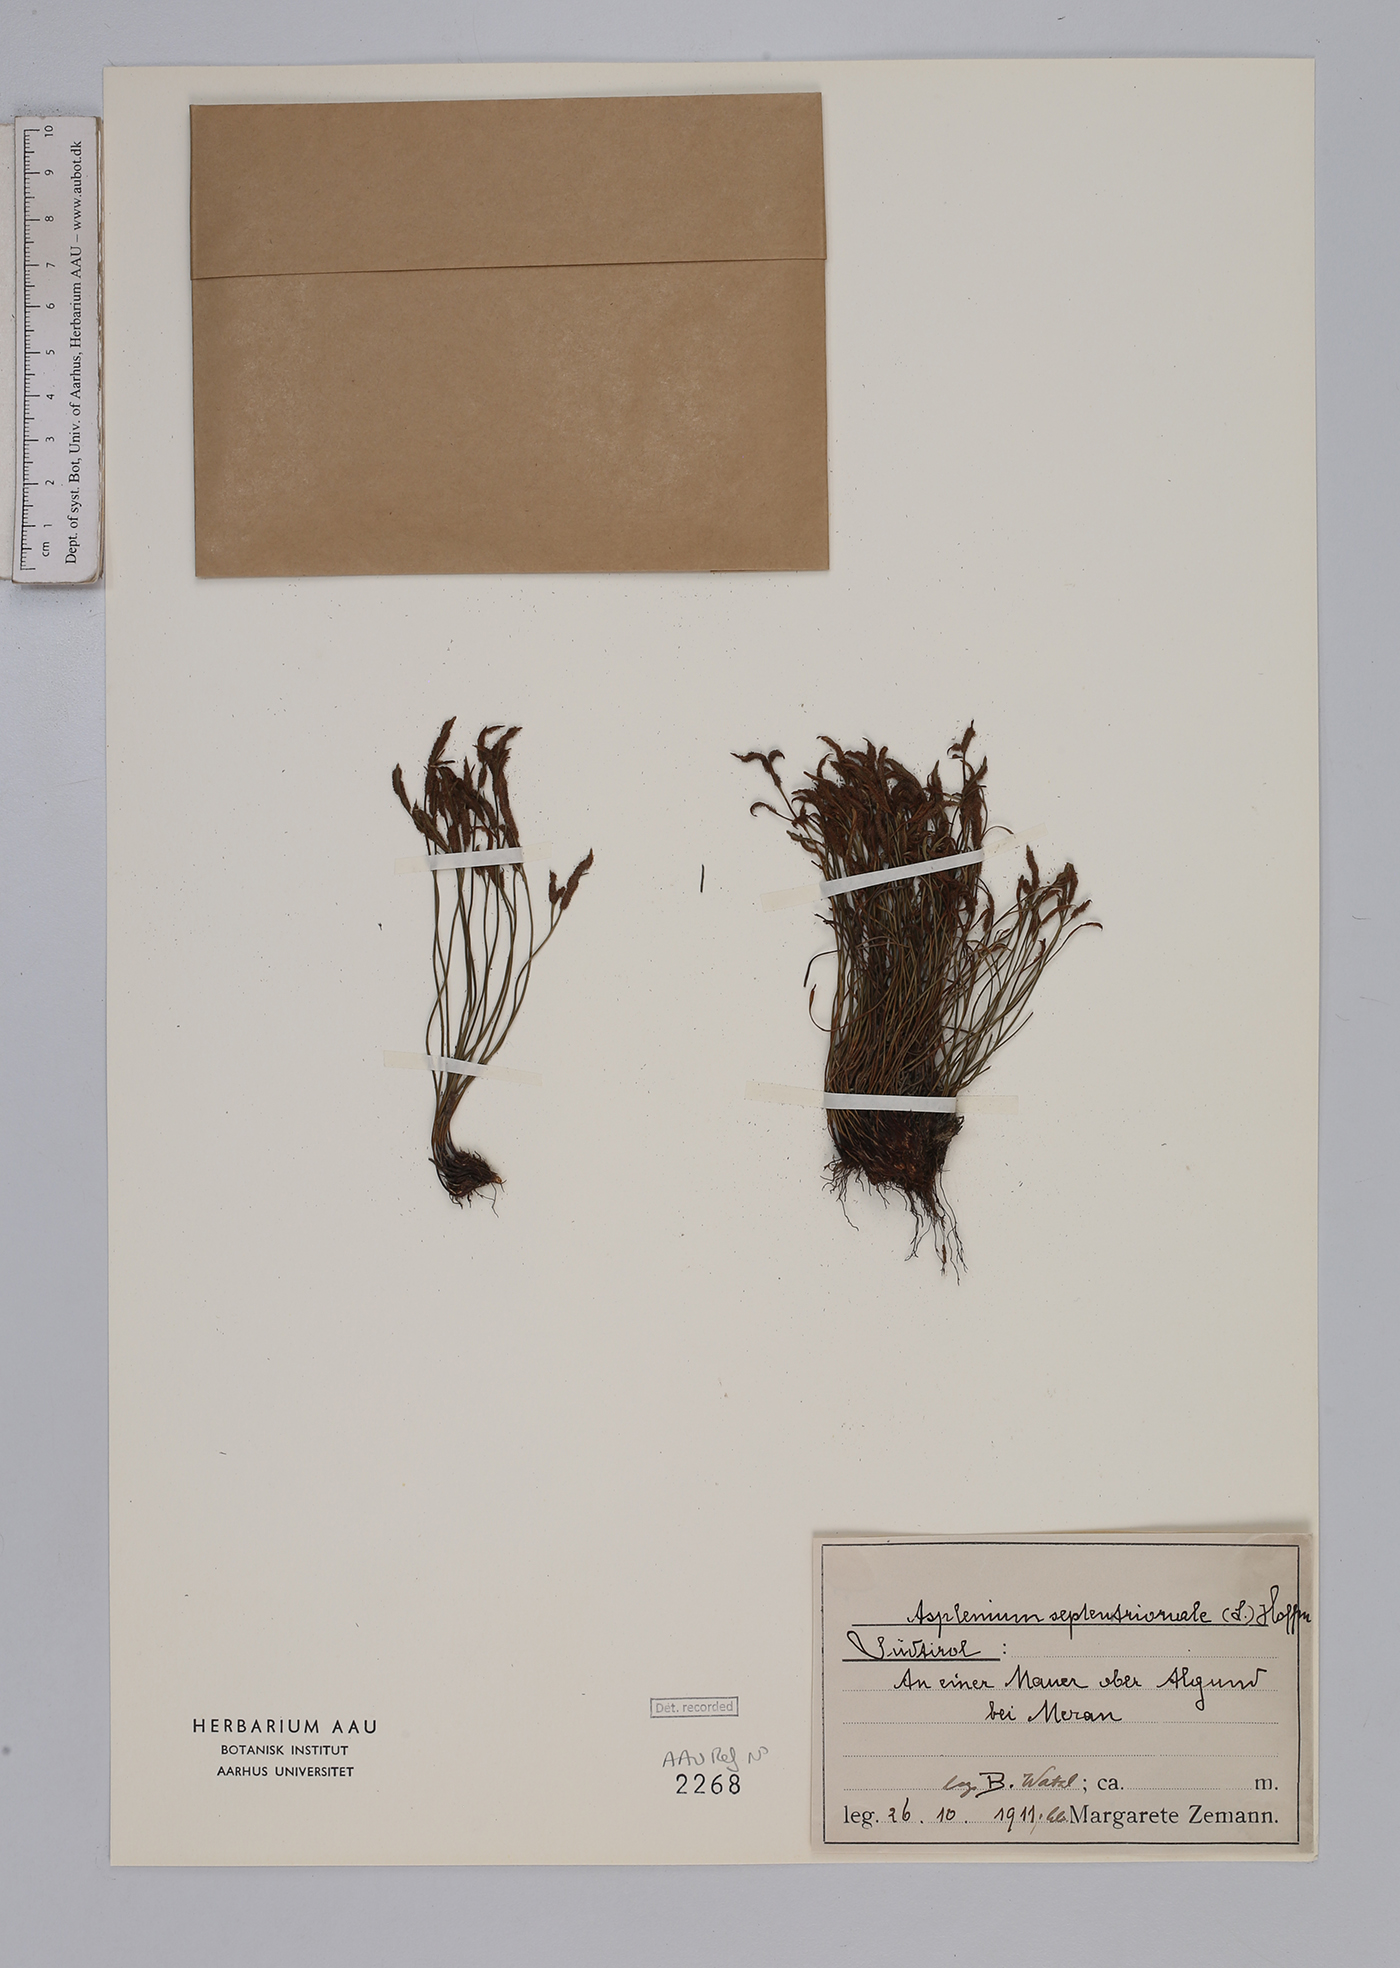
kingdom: Plantae
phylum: Tracheophyta
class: Polypodiopsida
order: Polypodiales
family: Aspleniaceae
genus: Asplenium
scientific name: Asplenium septentrionale
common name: Forked spleenwort
